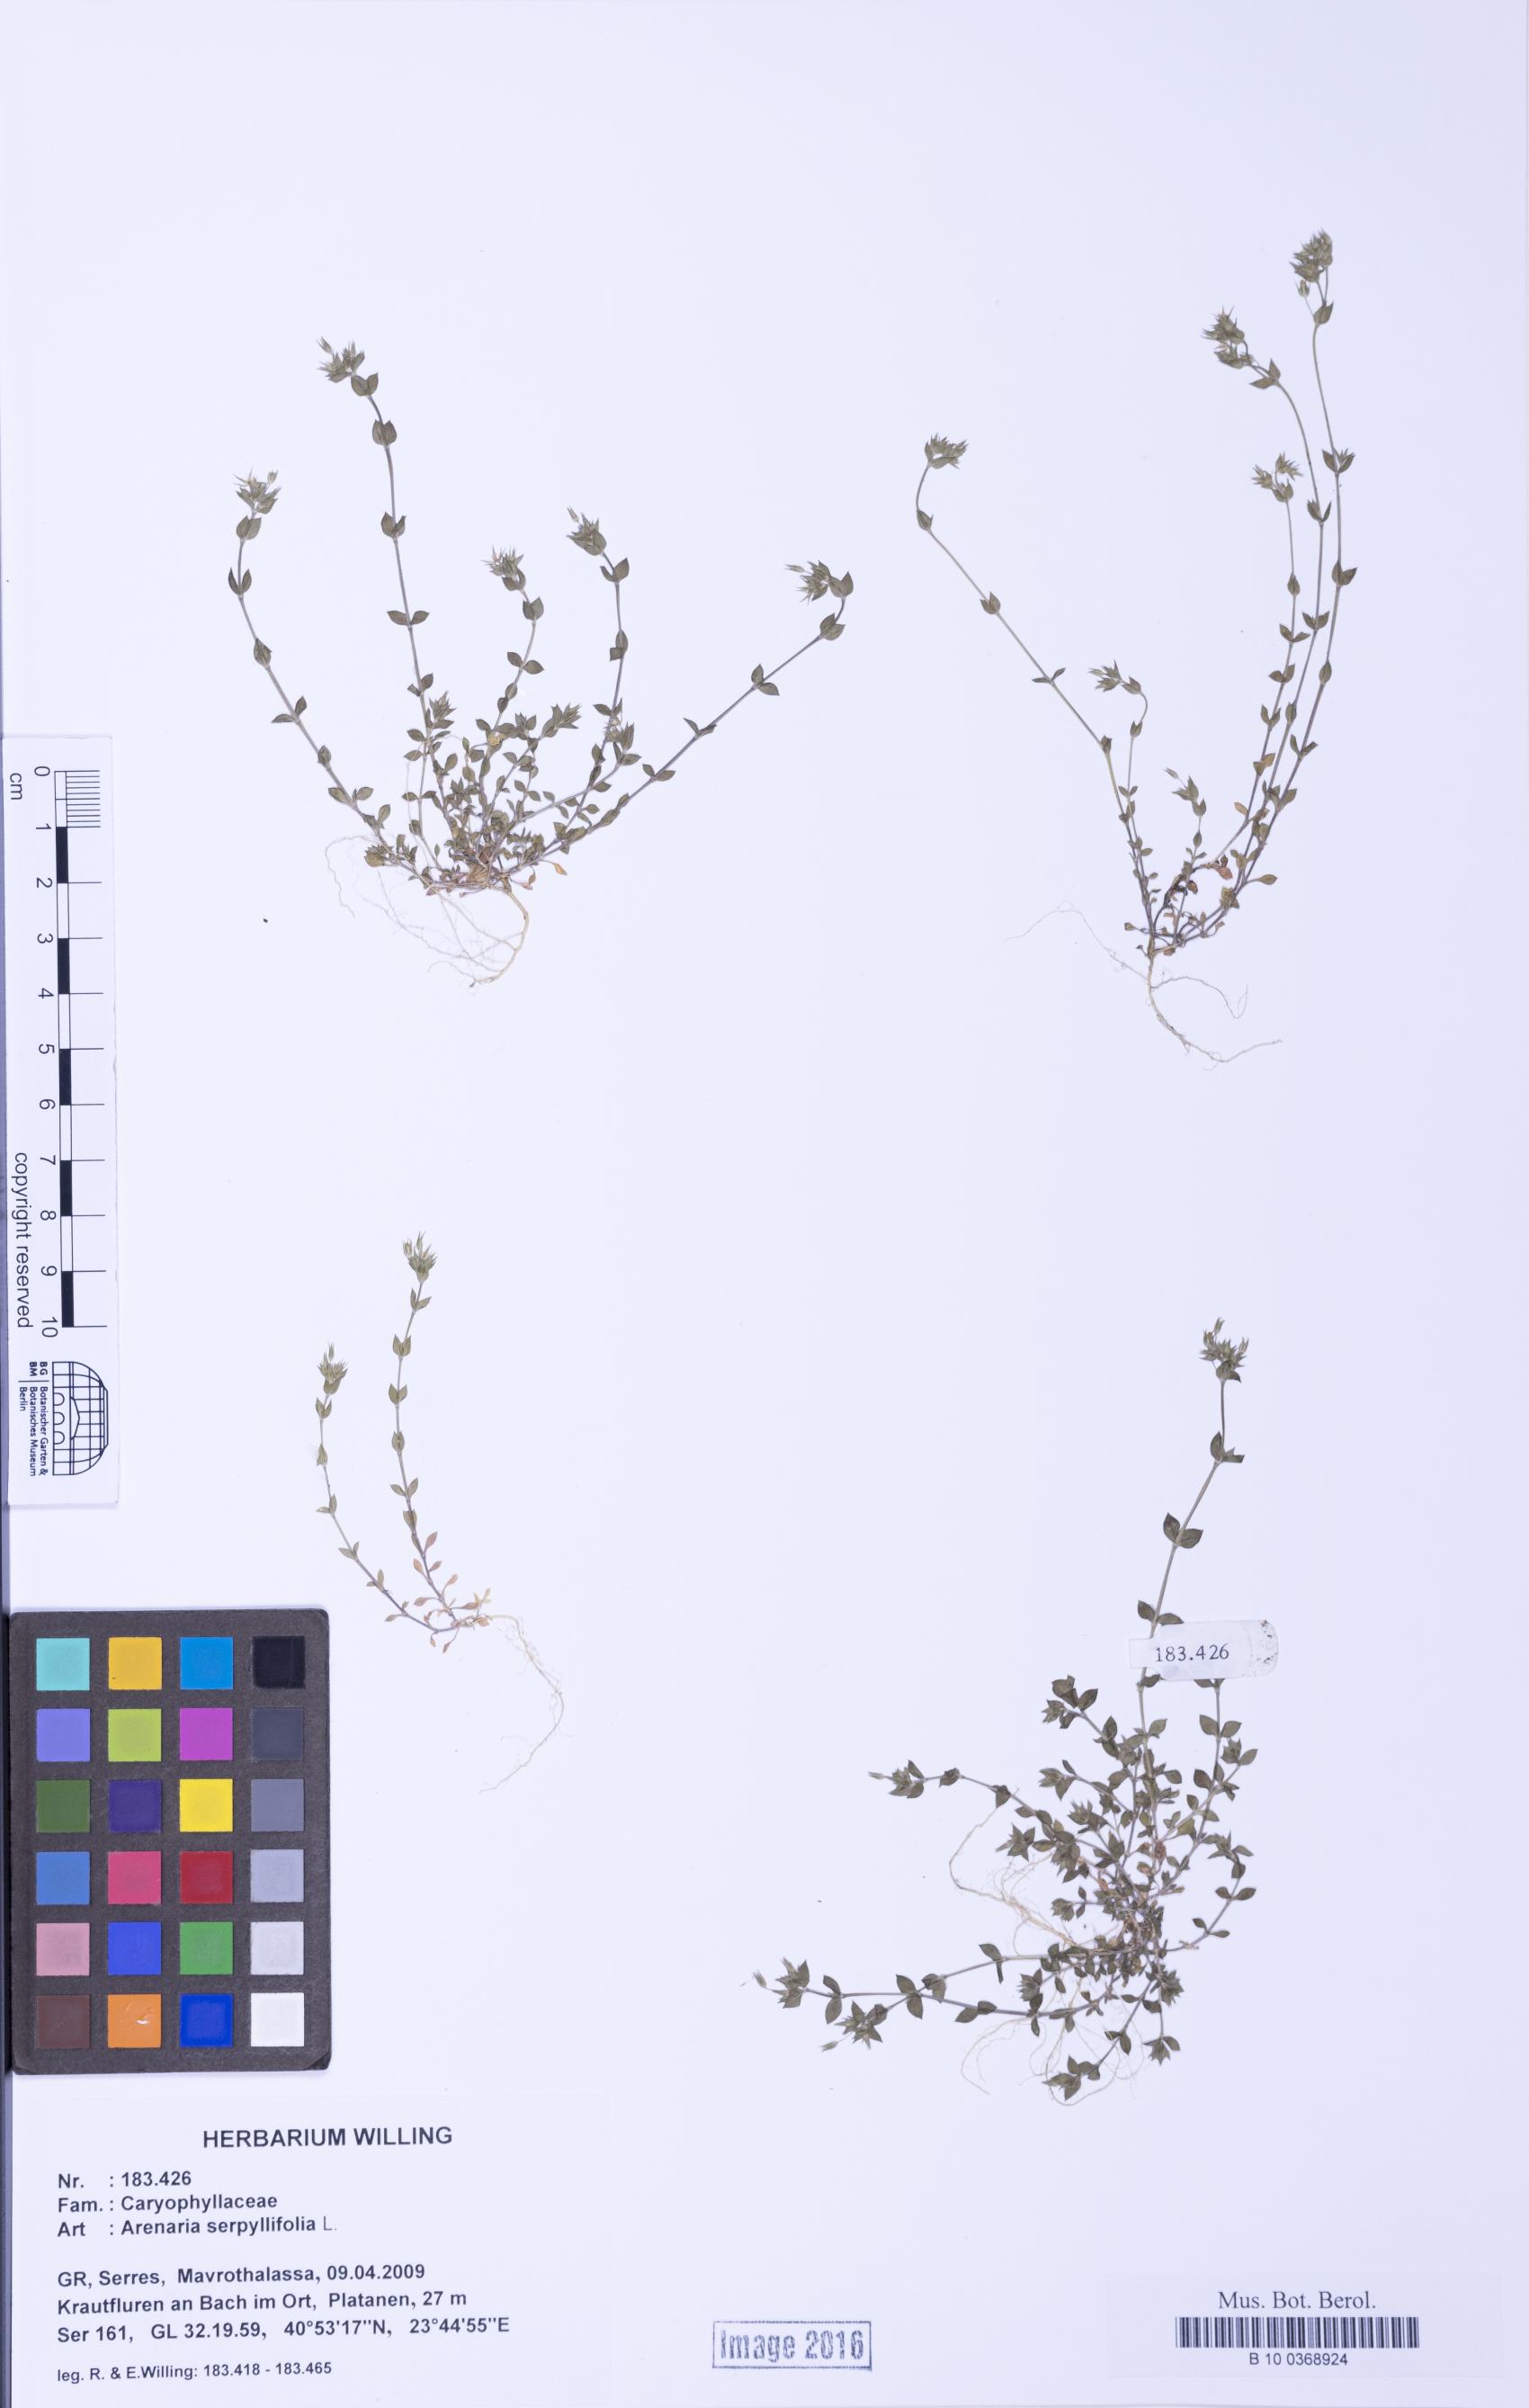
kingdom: Plantae
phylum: Tracheophyta
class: Magnoliopsida
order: Caryophyllales
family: Caryophyllaceae
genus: Arenaria
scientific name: Arenaria serpyllifolia
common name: Thyme-leaved sandwort
